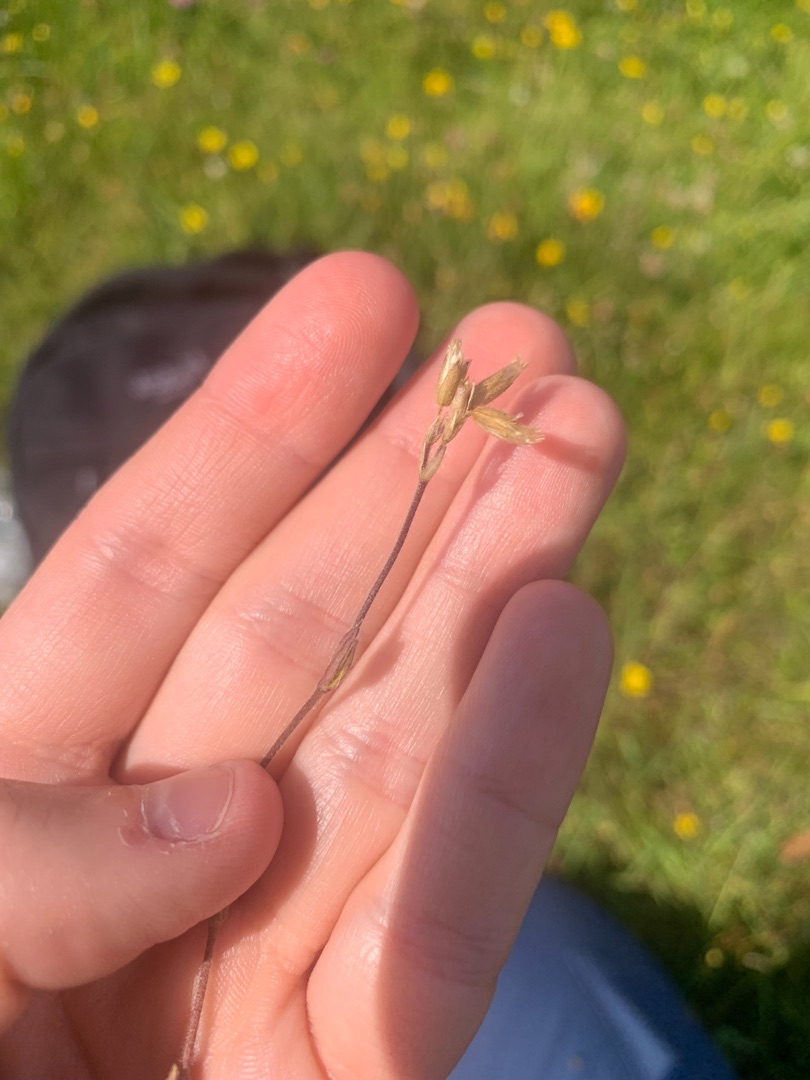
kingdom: Plantae
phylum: Tracheophyta
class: Magnoliopsida
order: Caryophyllales
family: Caryophyllaceae
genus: Cerastium
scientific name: Cerastium fontanum
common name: Almindelig hønsetarm
